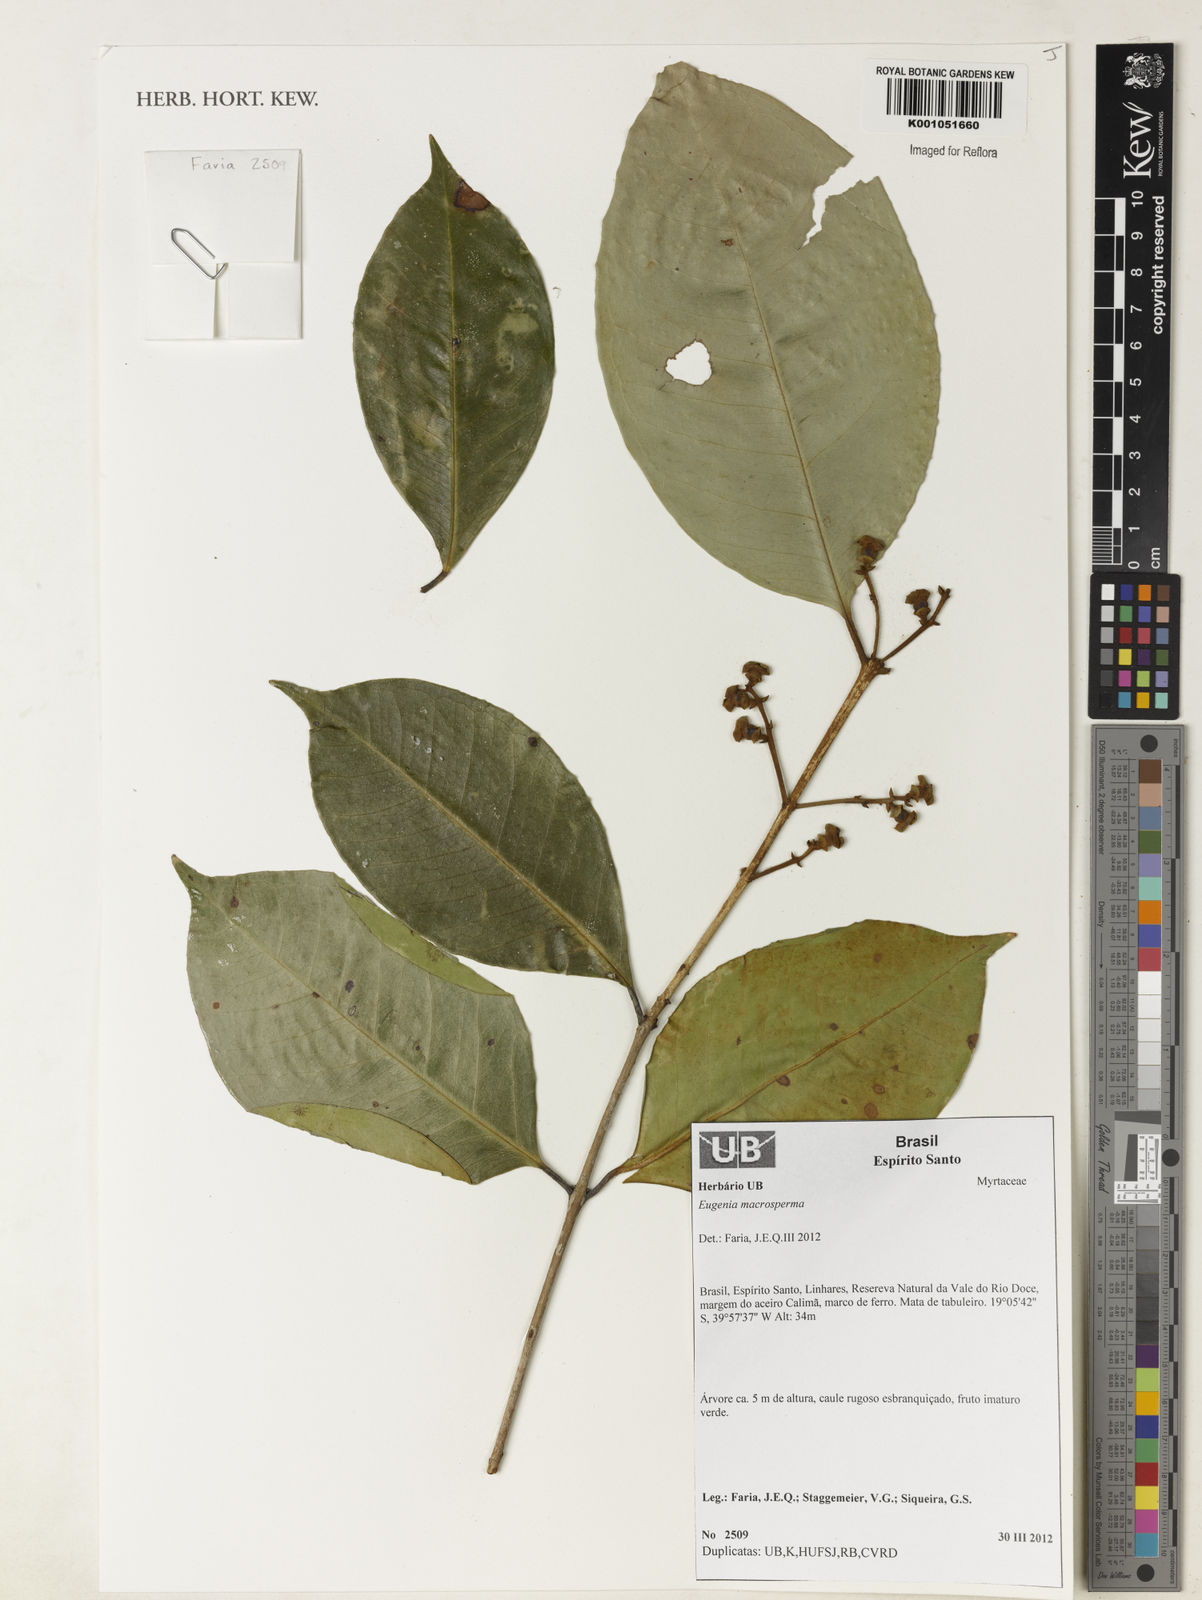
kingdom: Plantae
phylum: Tracheophyta
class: Magnoliopsida
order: Myrtales
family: Myrtaceae
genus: Eugenia
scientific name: Eugenia macrosperma
